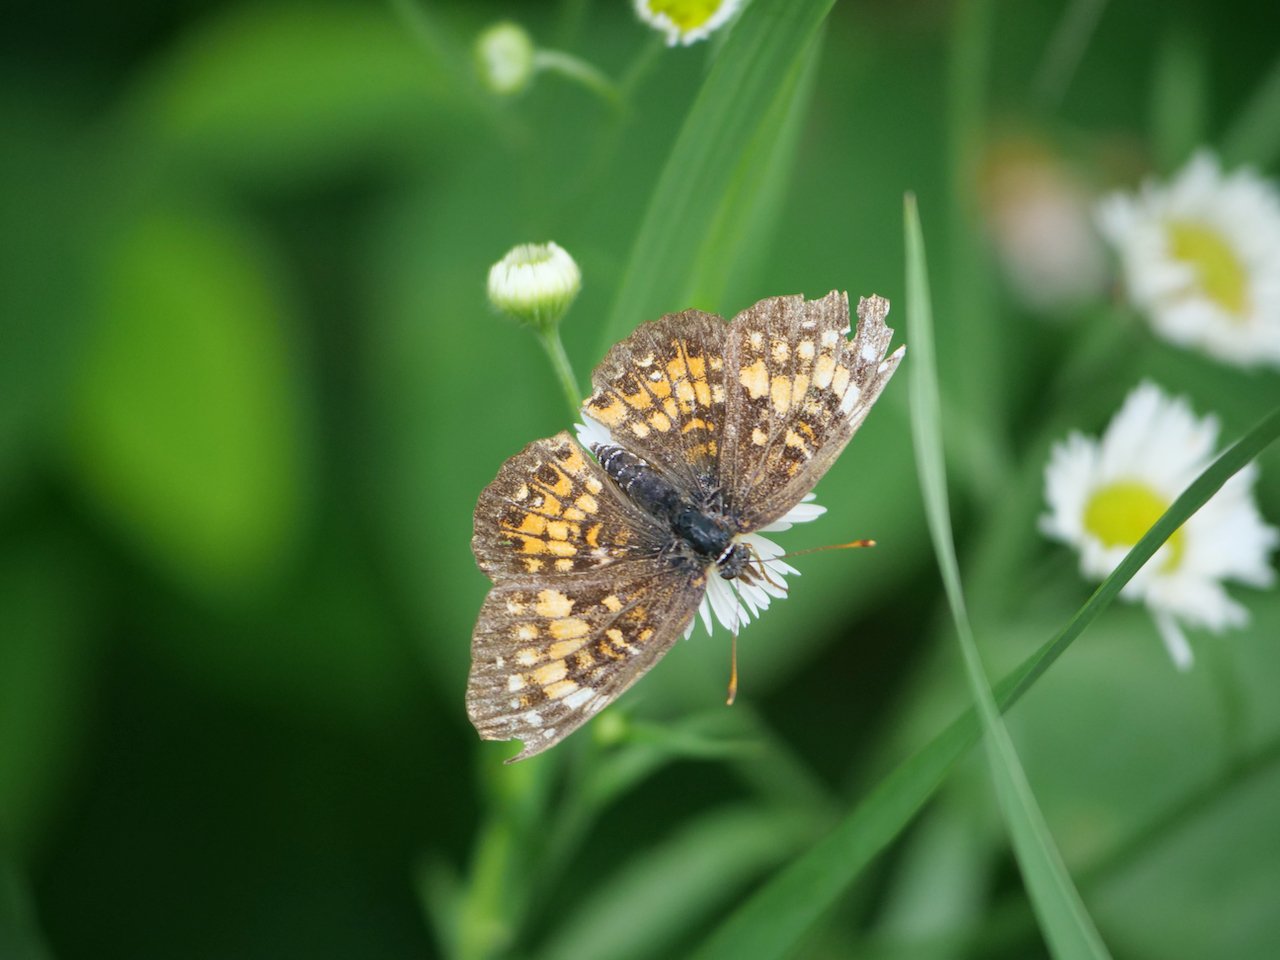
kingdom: Animalia
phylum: Arthropoda
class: Insecta
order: Lepidoptera
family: Nymphalidae
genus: Chlosyne
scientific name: Chlosyne harrisii
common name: Harris's Checkerspot
